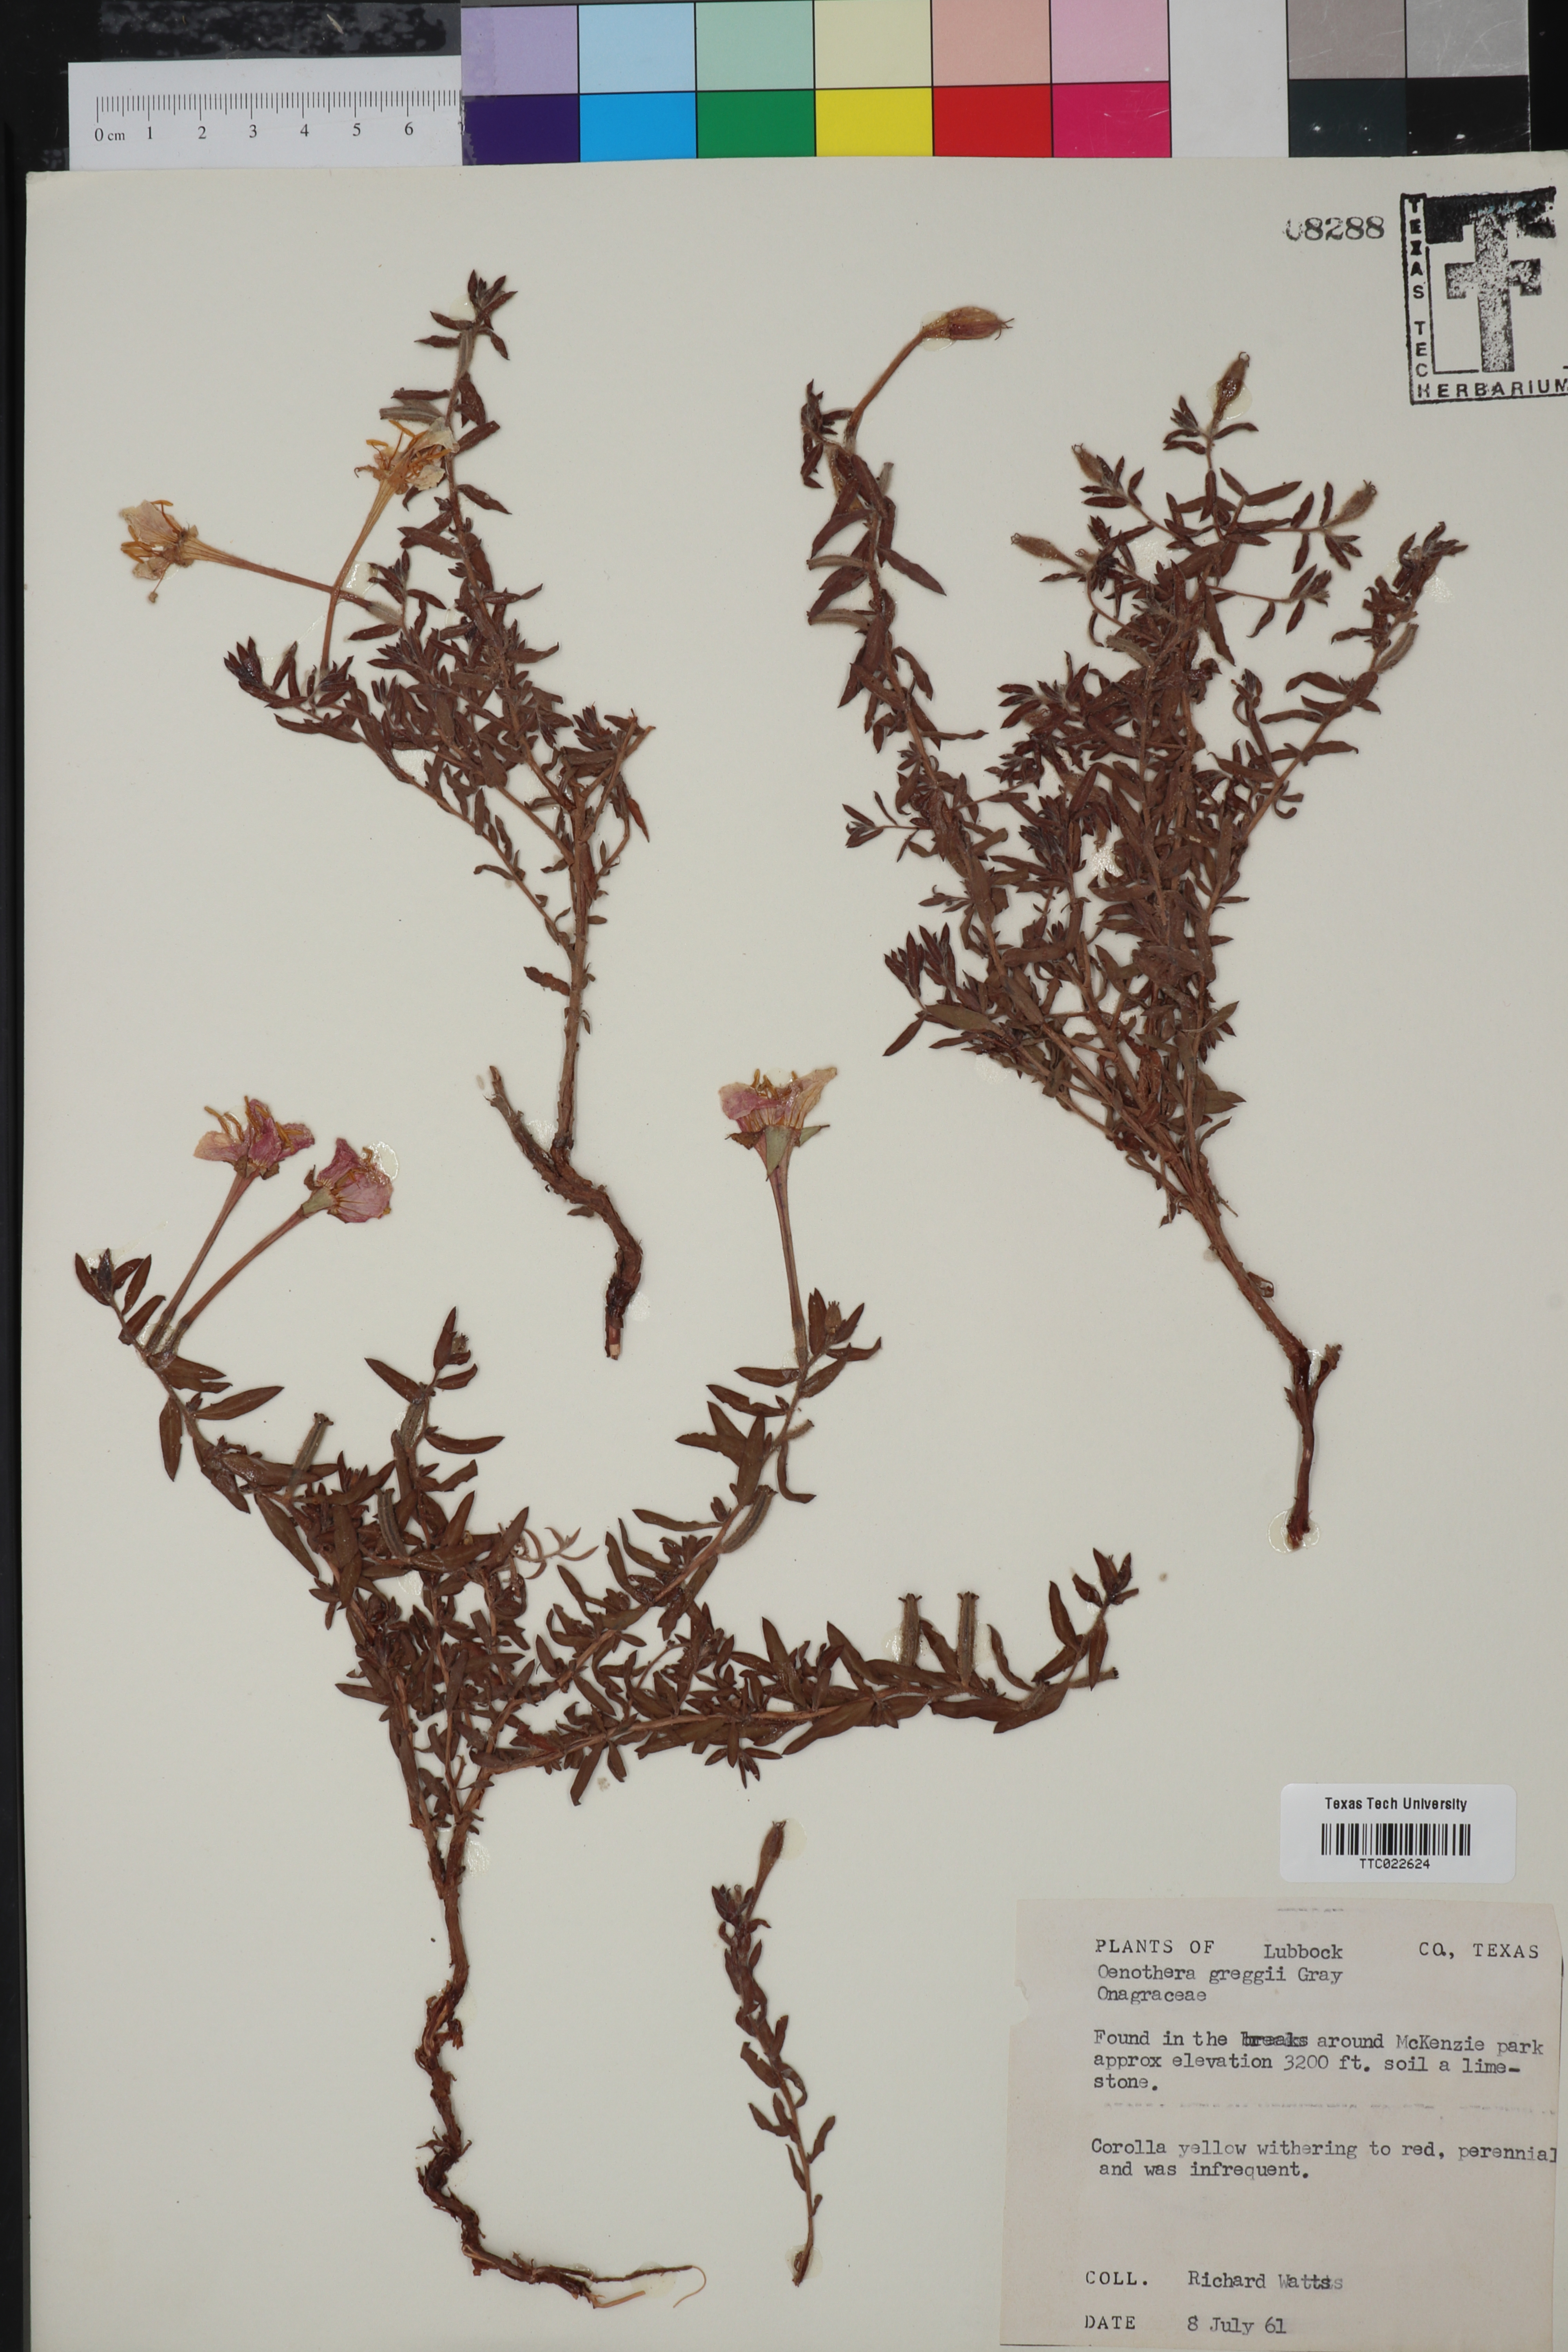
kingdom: Plantae
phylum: Tracheophyta
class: Magnoliopsida
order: Myrtales
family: Onagraceae
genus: Oenothera
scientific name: Oenothera hartwegii
